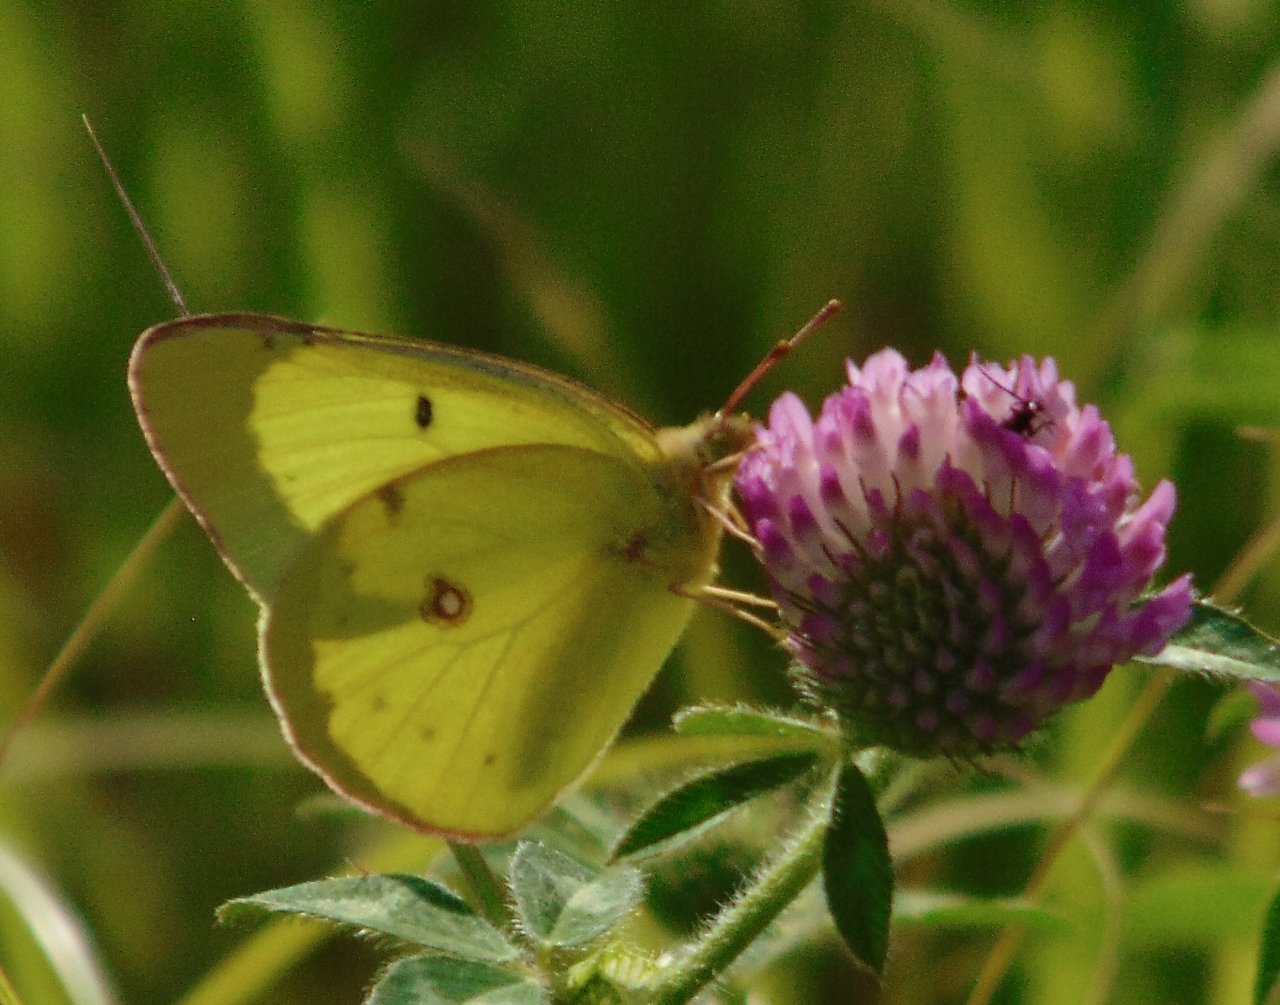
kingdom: Animalia
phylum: Arthropoda
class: Insecta
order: Lepidoptera
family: Pieridae
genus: Colias
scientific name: Colias philodice
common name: Clouded Sulphur
